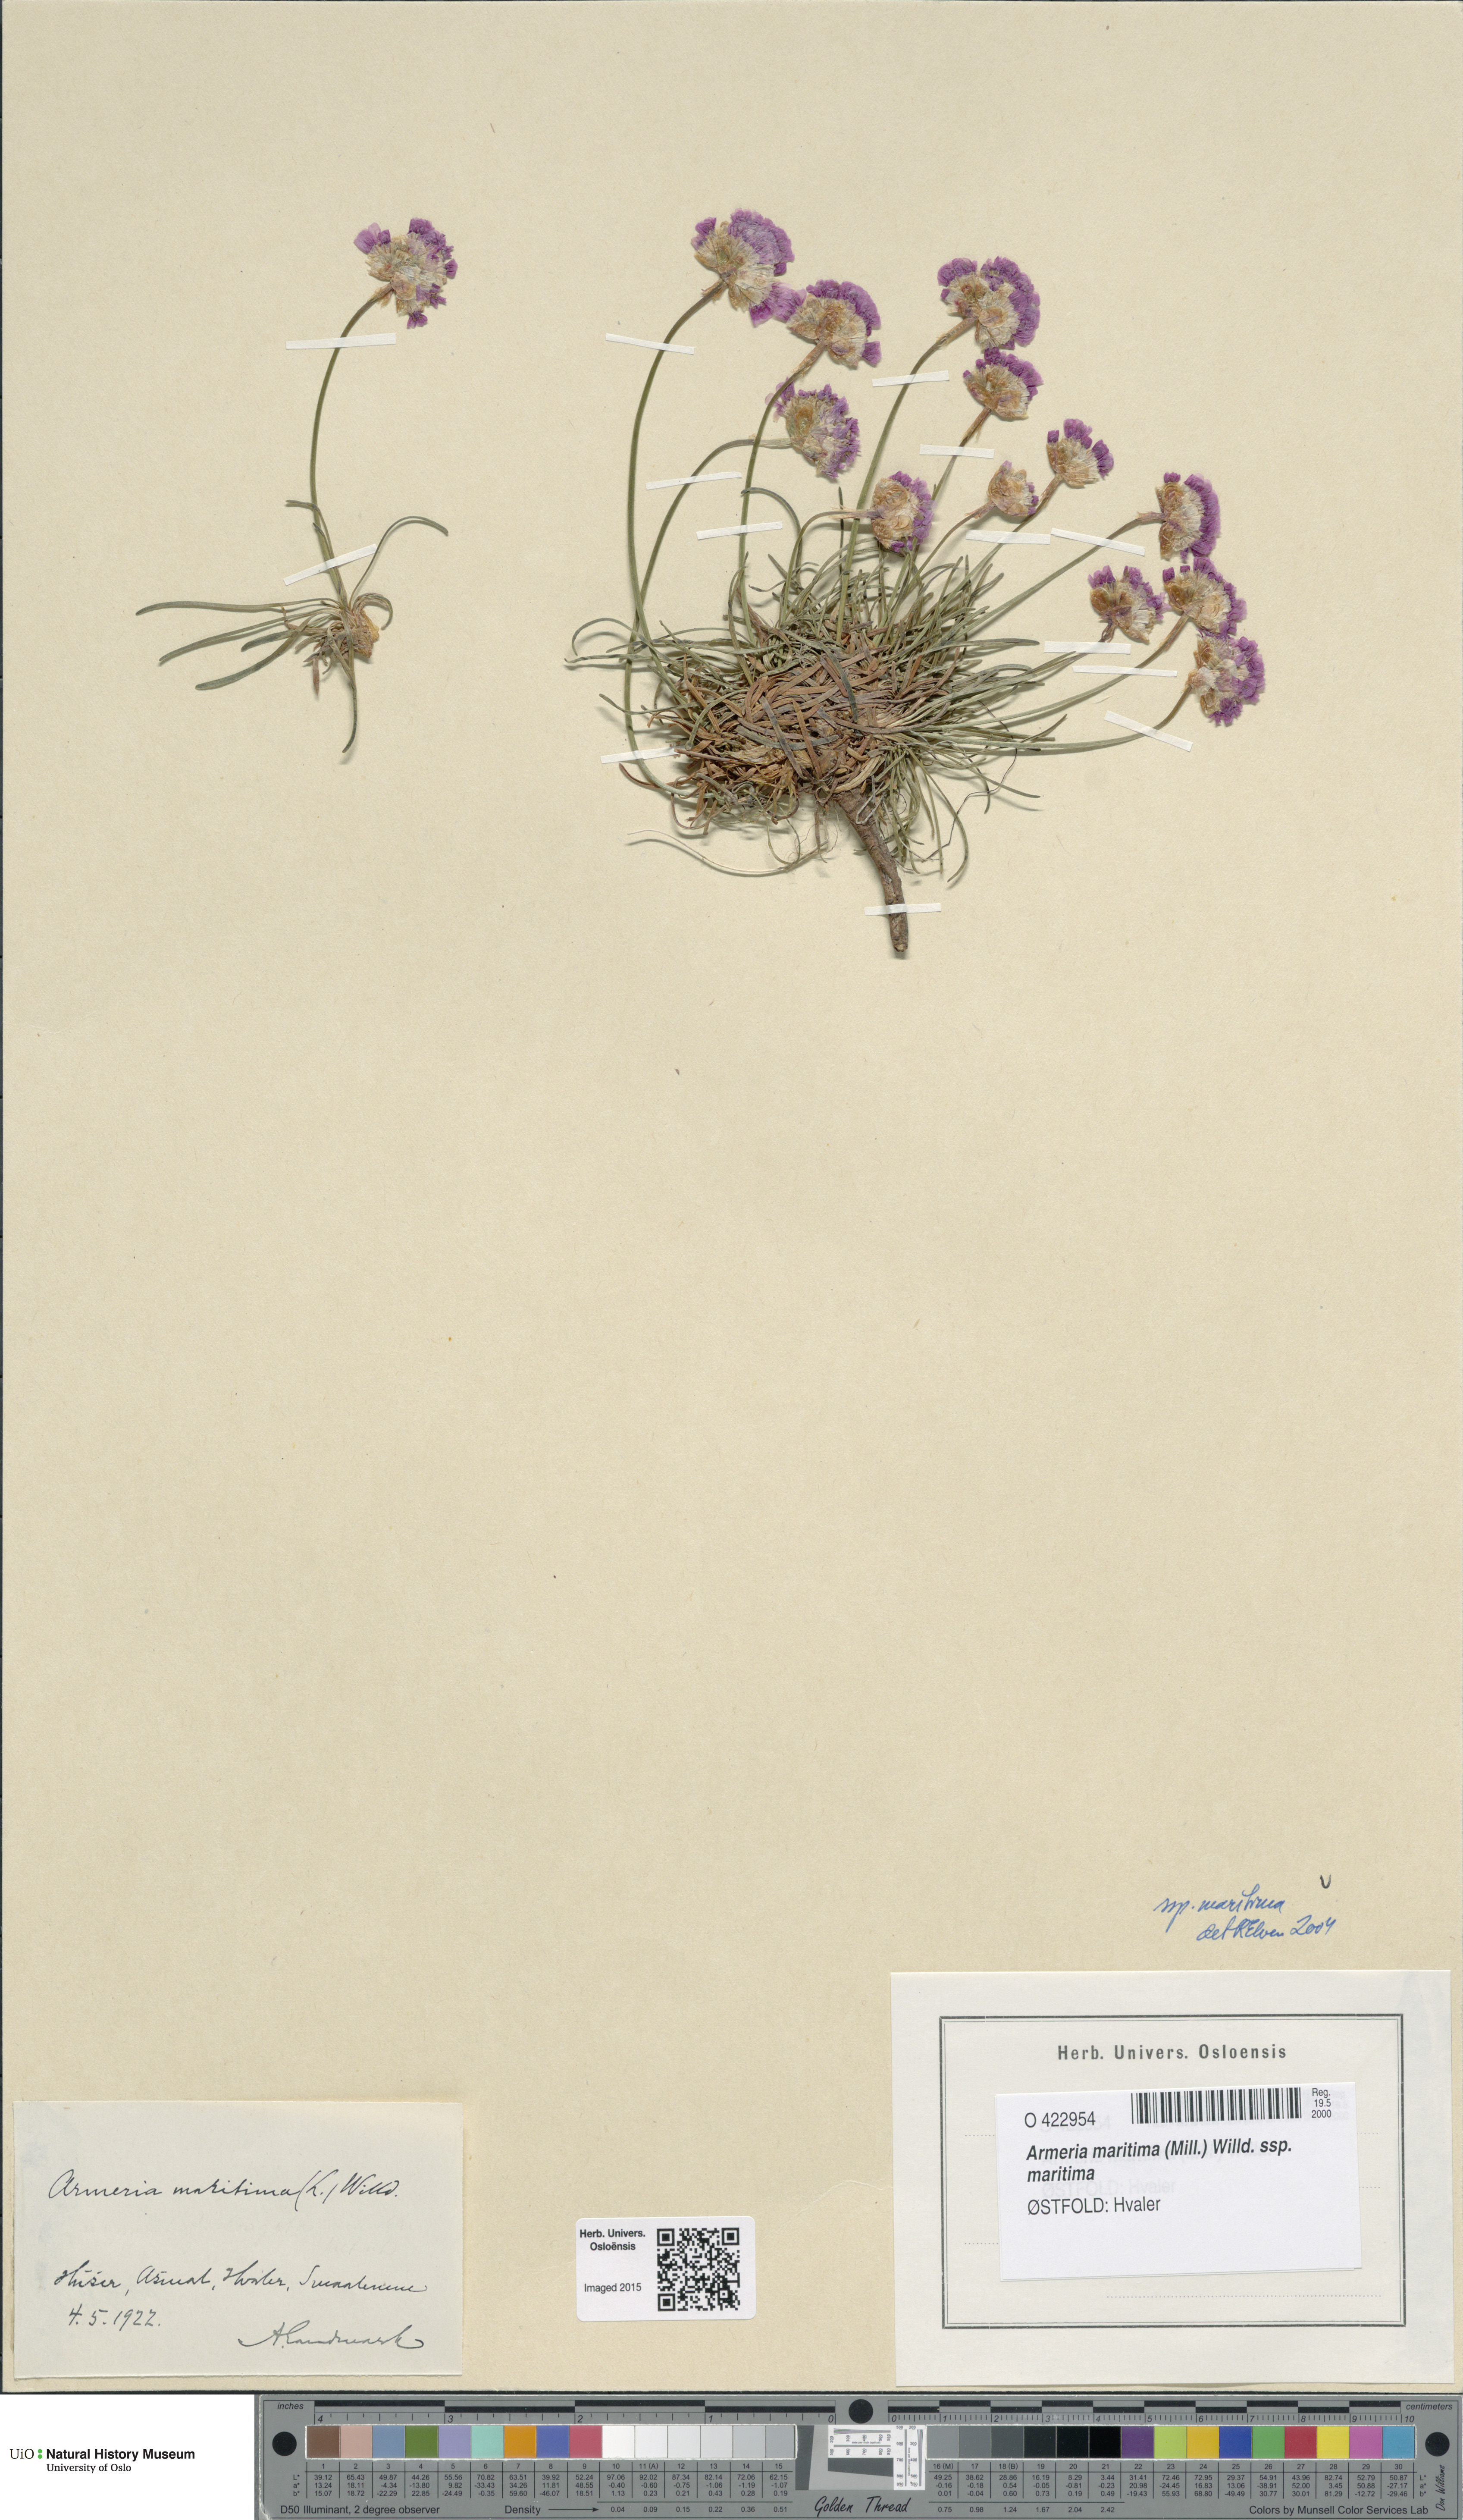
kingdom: Plantae
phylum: Tracheophyta
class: Magnoliopsida
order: Caryophyllales
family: Plumbaginaceae
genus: Armeria
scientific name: Armeria maritima
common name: Thrift
